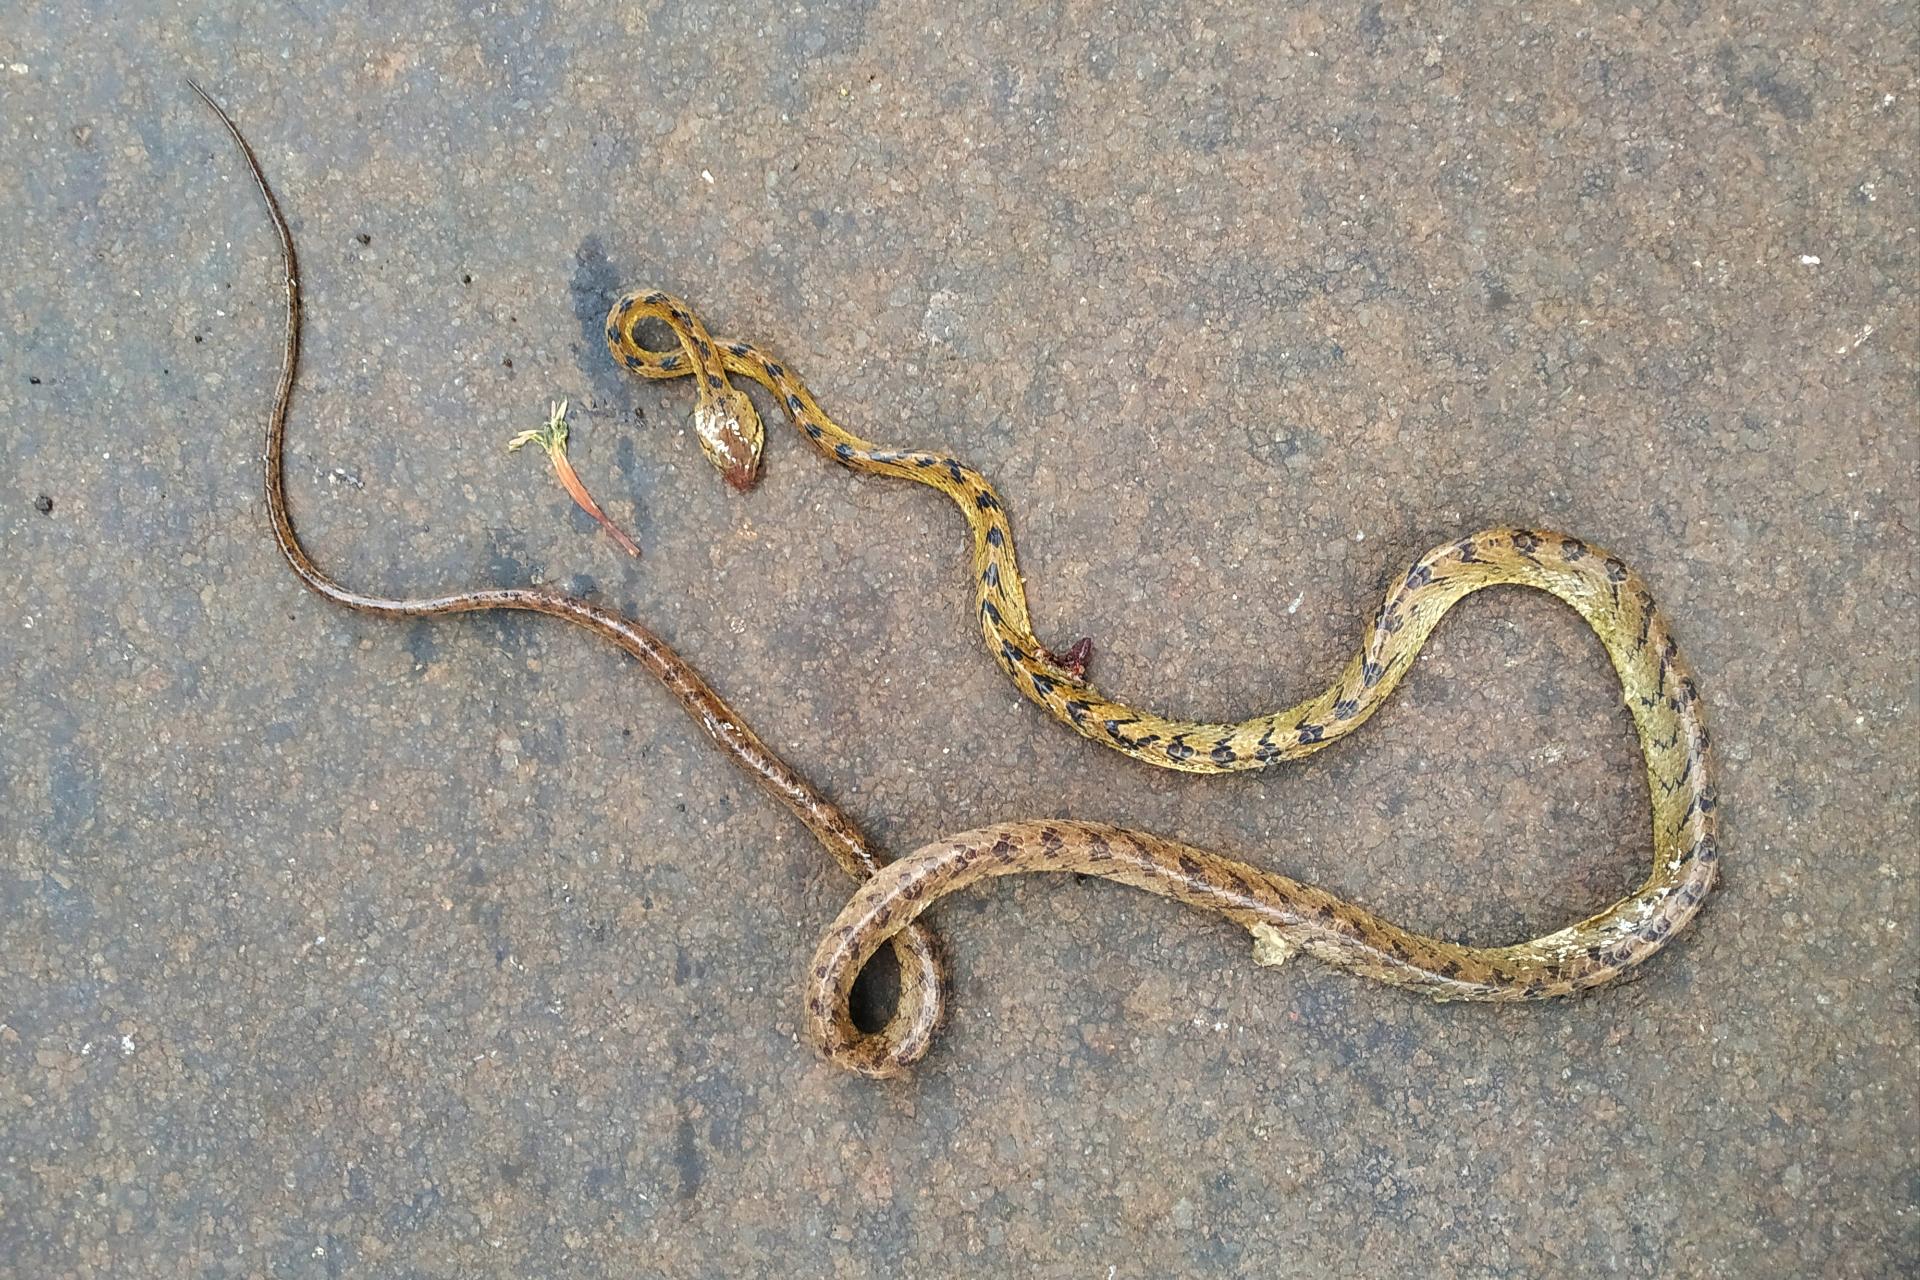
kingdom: Animalia
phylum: Chordata
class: Squamata
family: Colubridae
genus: Boiga
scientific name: Boiga forsteni
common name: Forsten's cat snake
